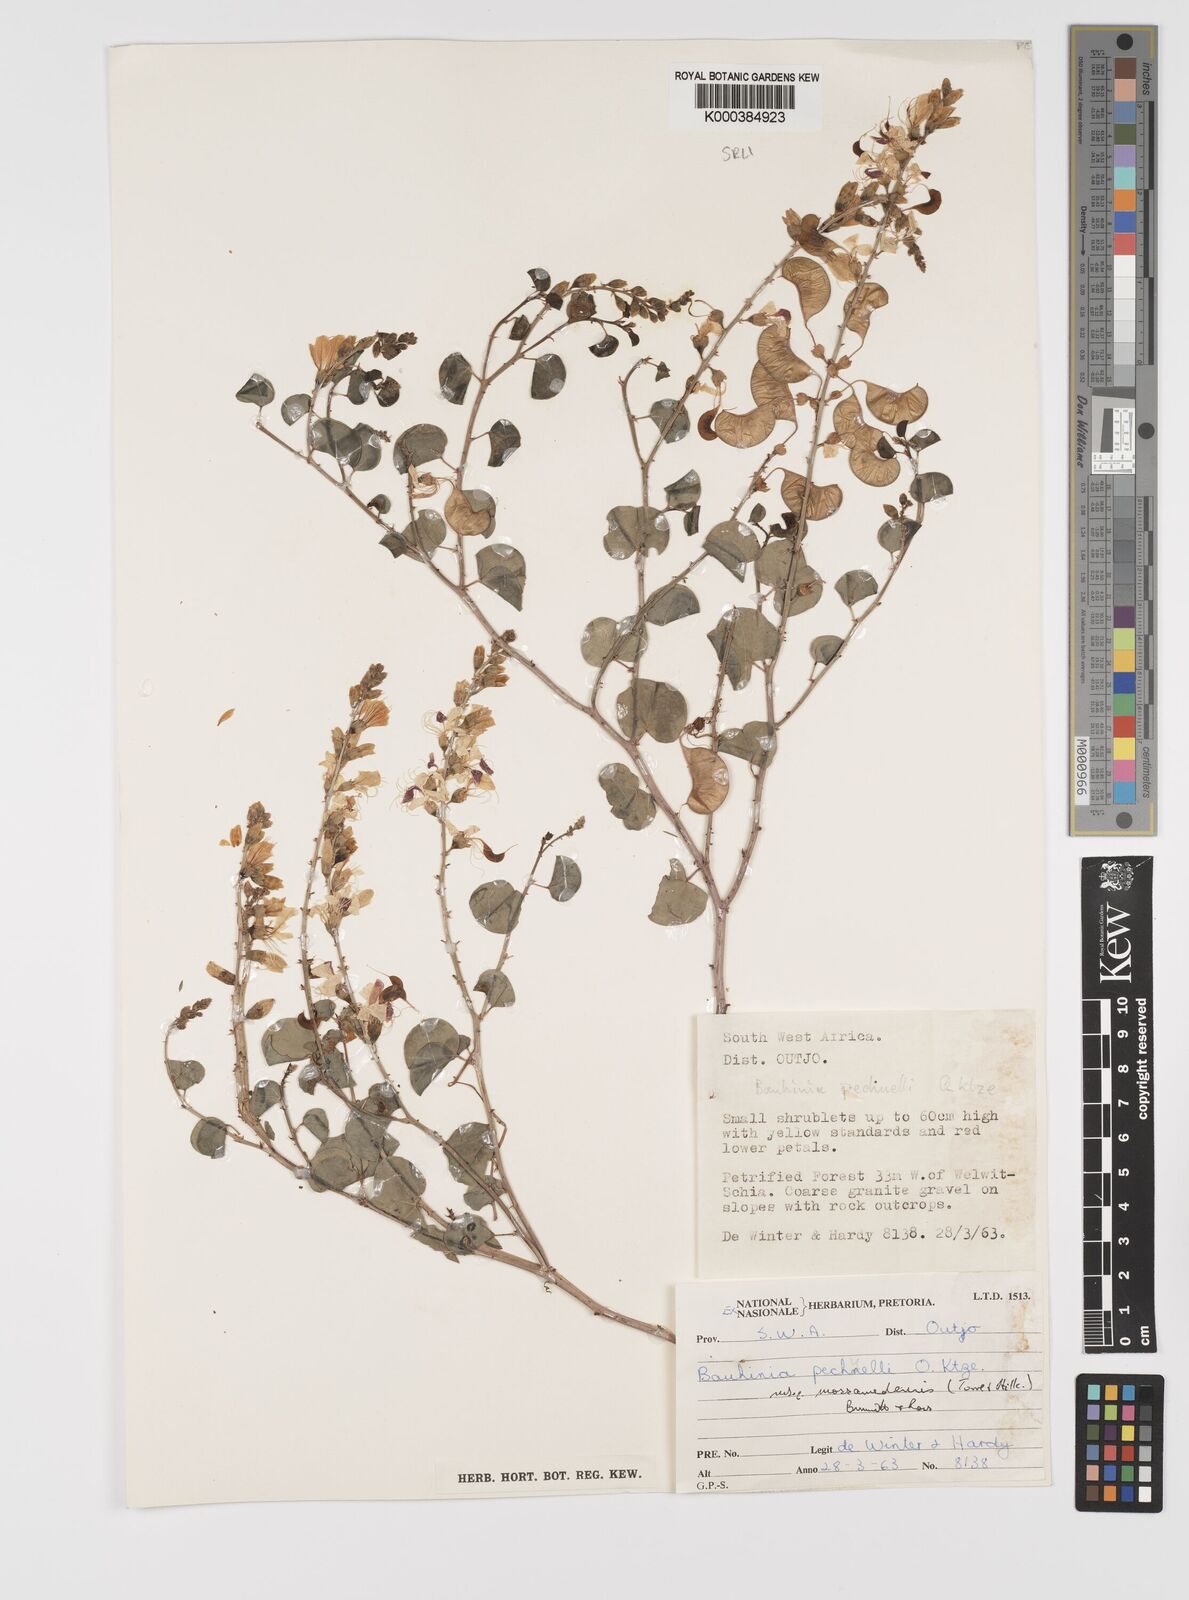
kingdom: Plantae
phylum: Tracheophyta
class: Magnoliopsida
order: Fabales
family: Fabaceae
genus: Adenolobus
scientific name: Adenolobus
